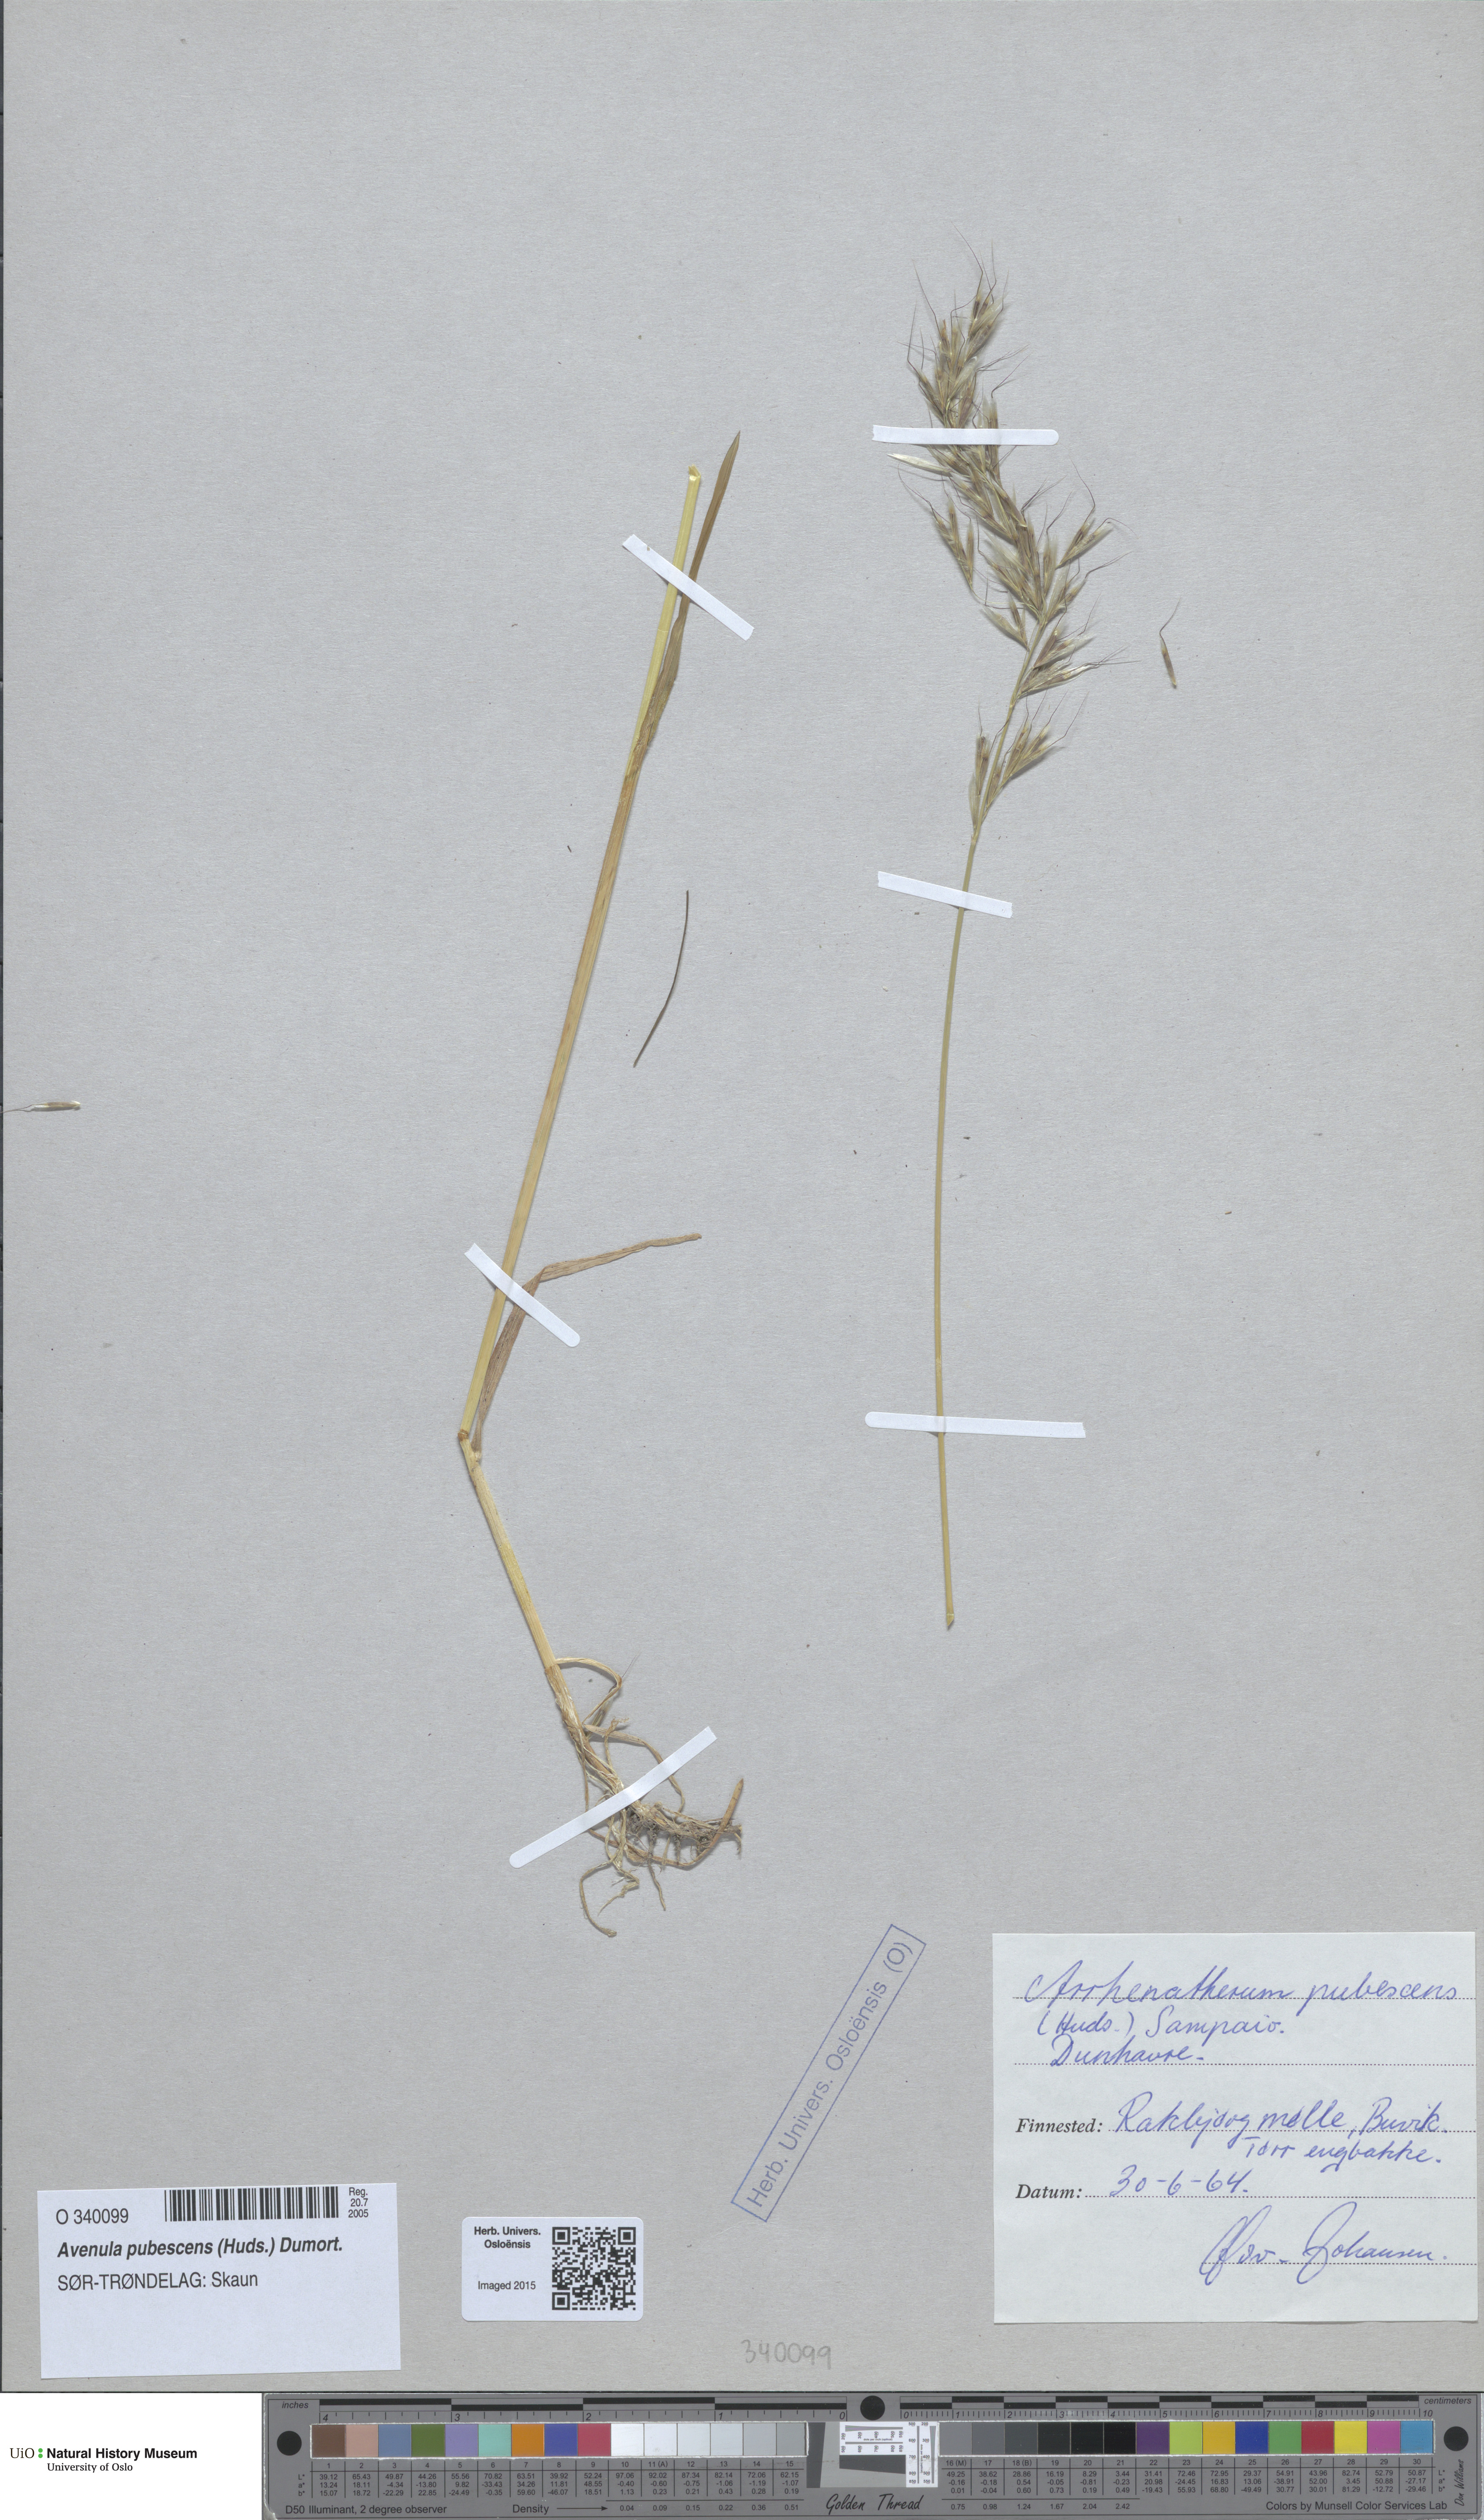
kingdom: Plantae
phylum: Tracheophyta
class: Liliopsida
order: Poales
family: Poaceae
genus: Avenula
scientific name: Avenula pubescens
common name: Downy alpine oatgrass
